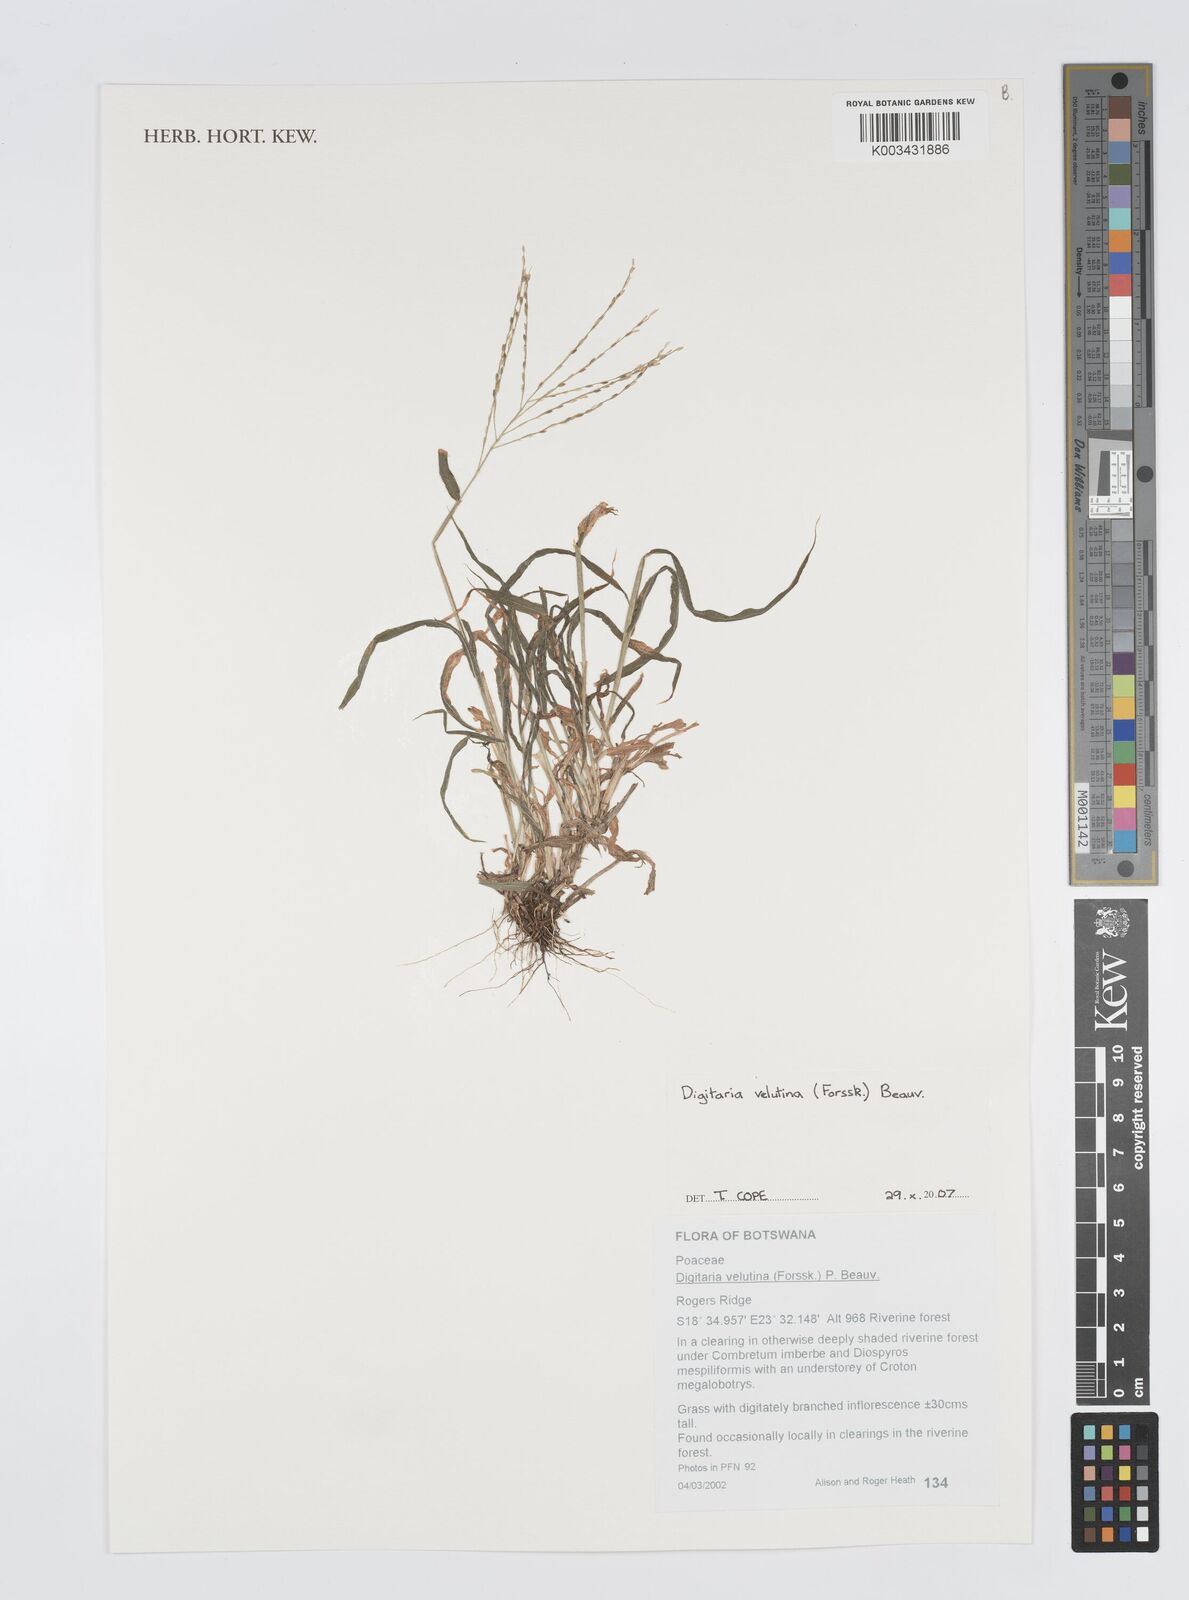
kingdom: Plantae
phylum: Tracheophyta
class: Liliopsida
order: Poales
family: Poaceae
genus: Digitaria
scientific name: Digitaria velutina
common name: Long-plume finger grass
